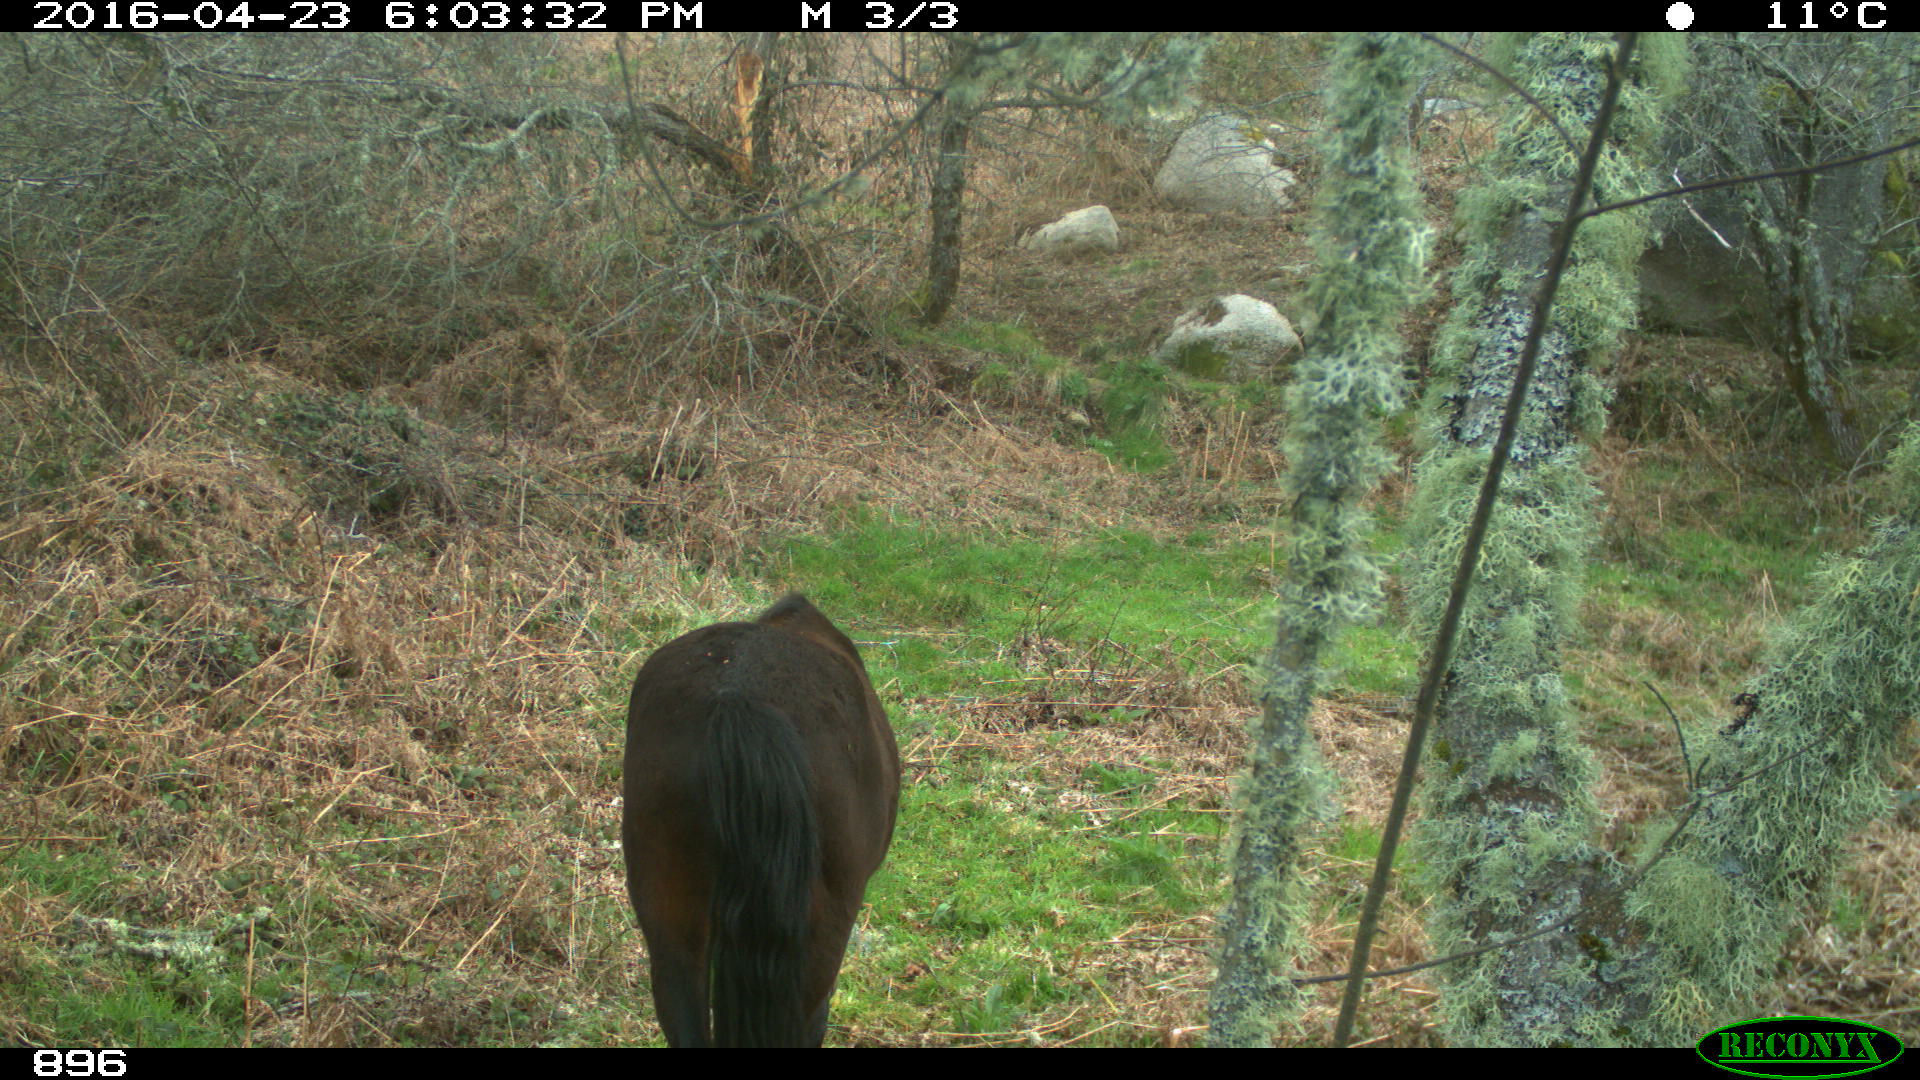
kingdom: Animalia
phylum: Chordata
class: Mammalia
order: Perissodactyla
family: Equidae
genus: Equus
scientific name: Equus caballus
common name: Horse
